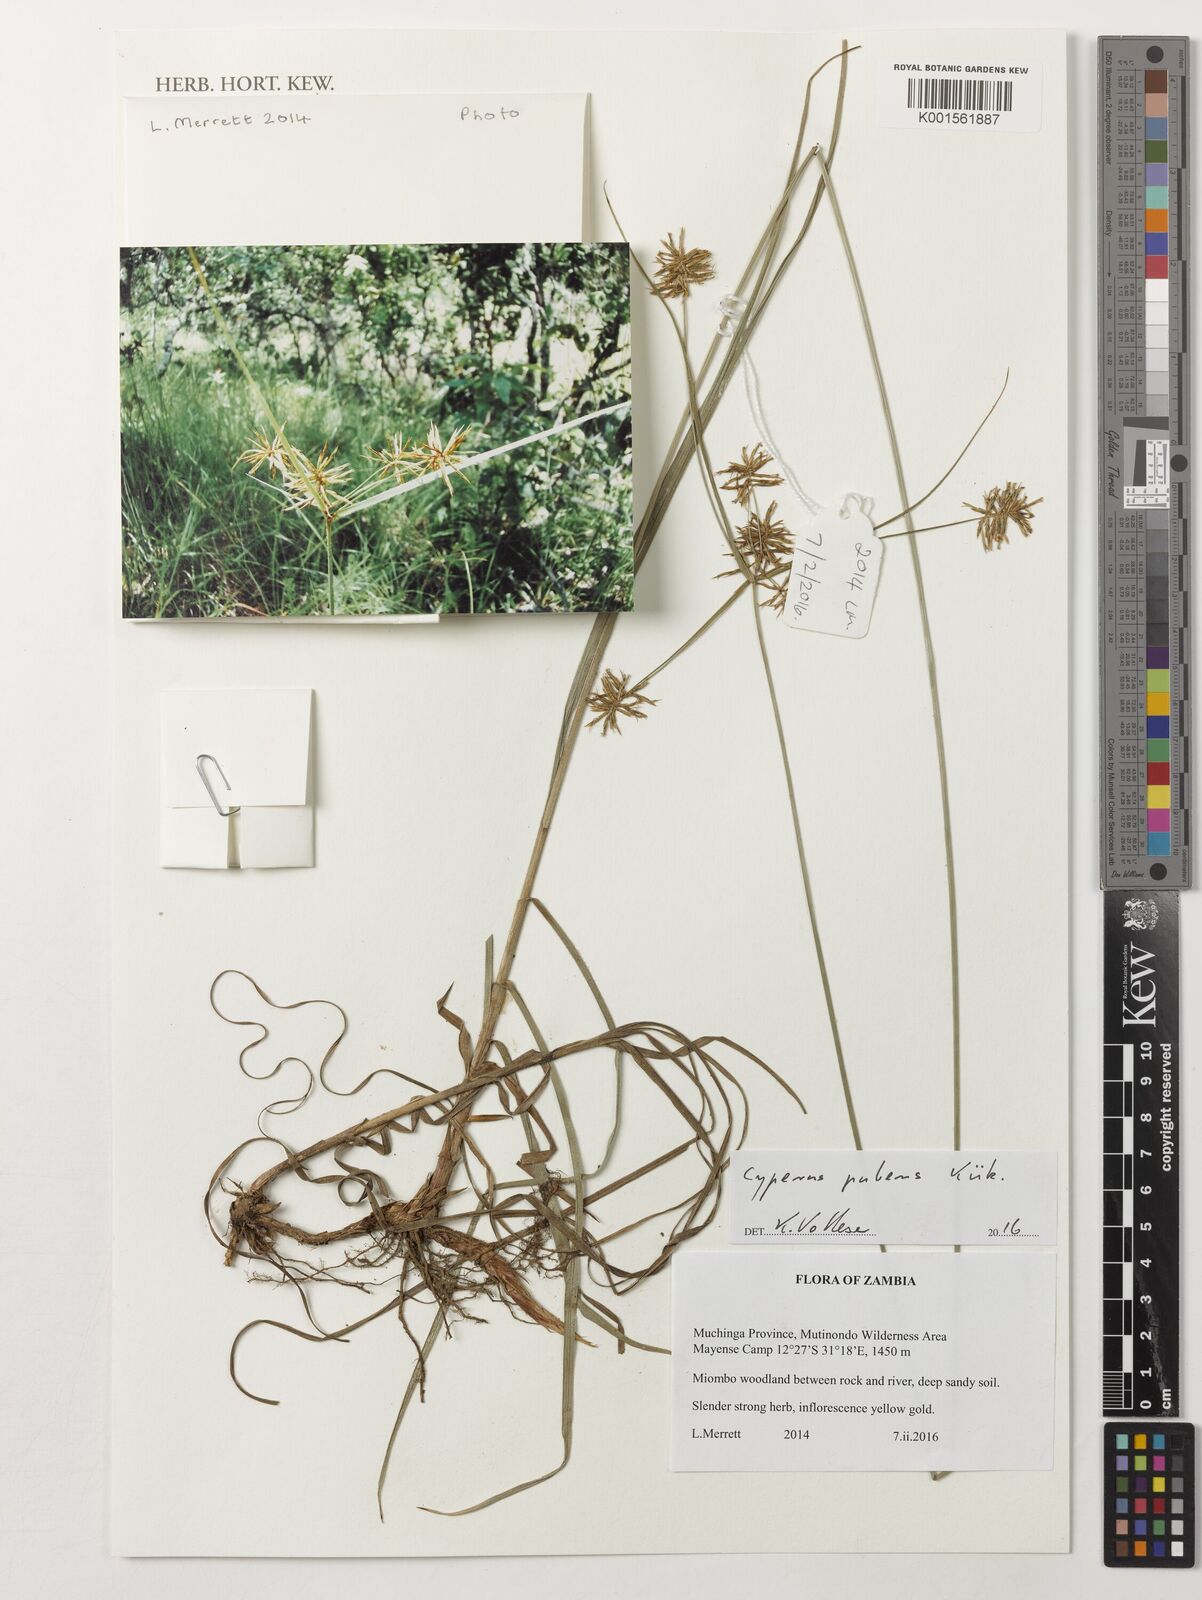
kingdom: Plantae
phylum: Tracheophyta
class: Liliopsida
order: Poales
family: Cyperaceae
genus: Cyperus
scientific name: Cyperus pubens
